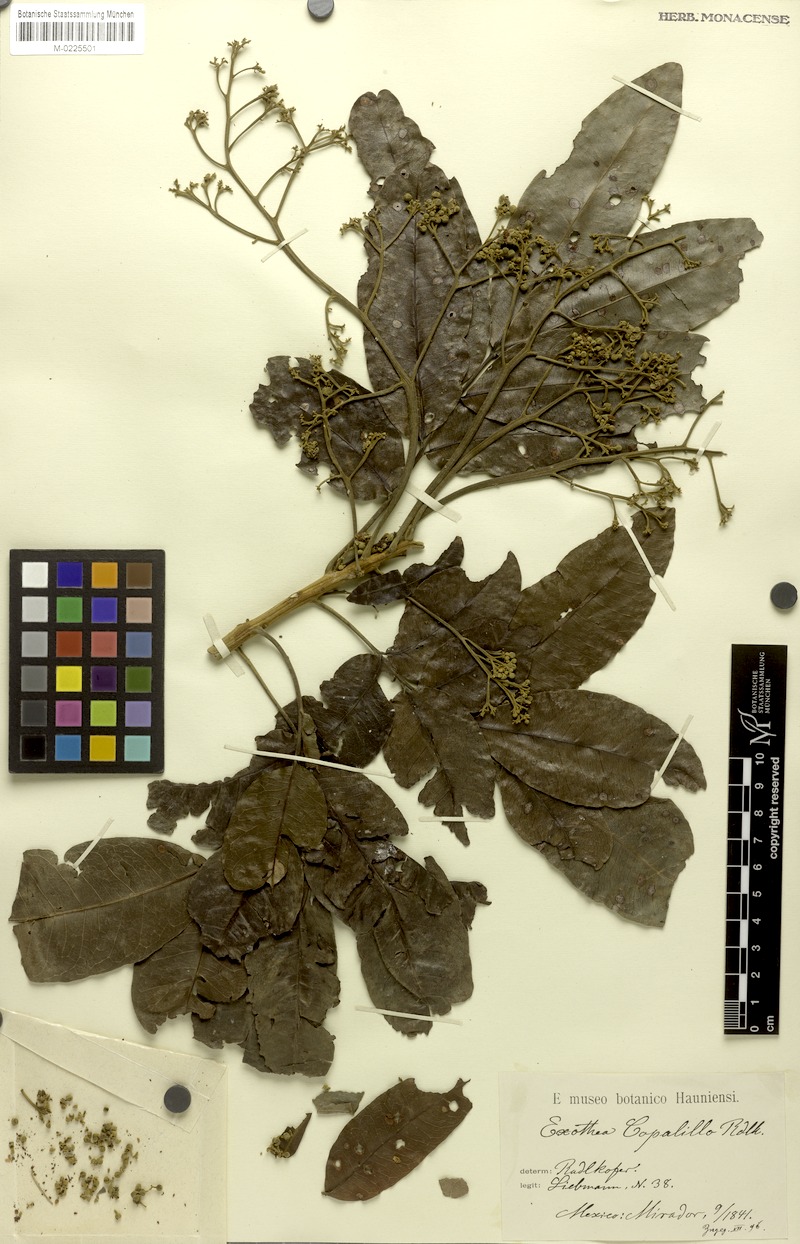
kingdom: Plantae
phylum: Tracheophyta
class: Magnoliopsida
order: Sapindales
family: Sapindaceae
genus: Exothea
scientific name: Exothea copalillo
